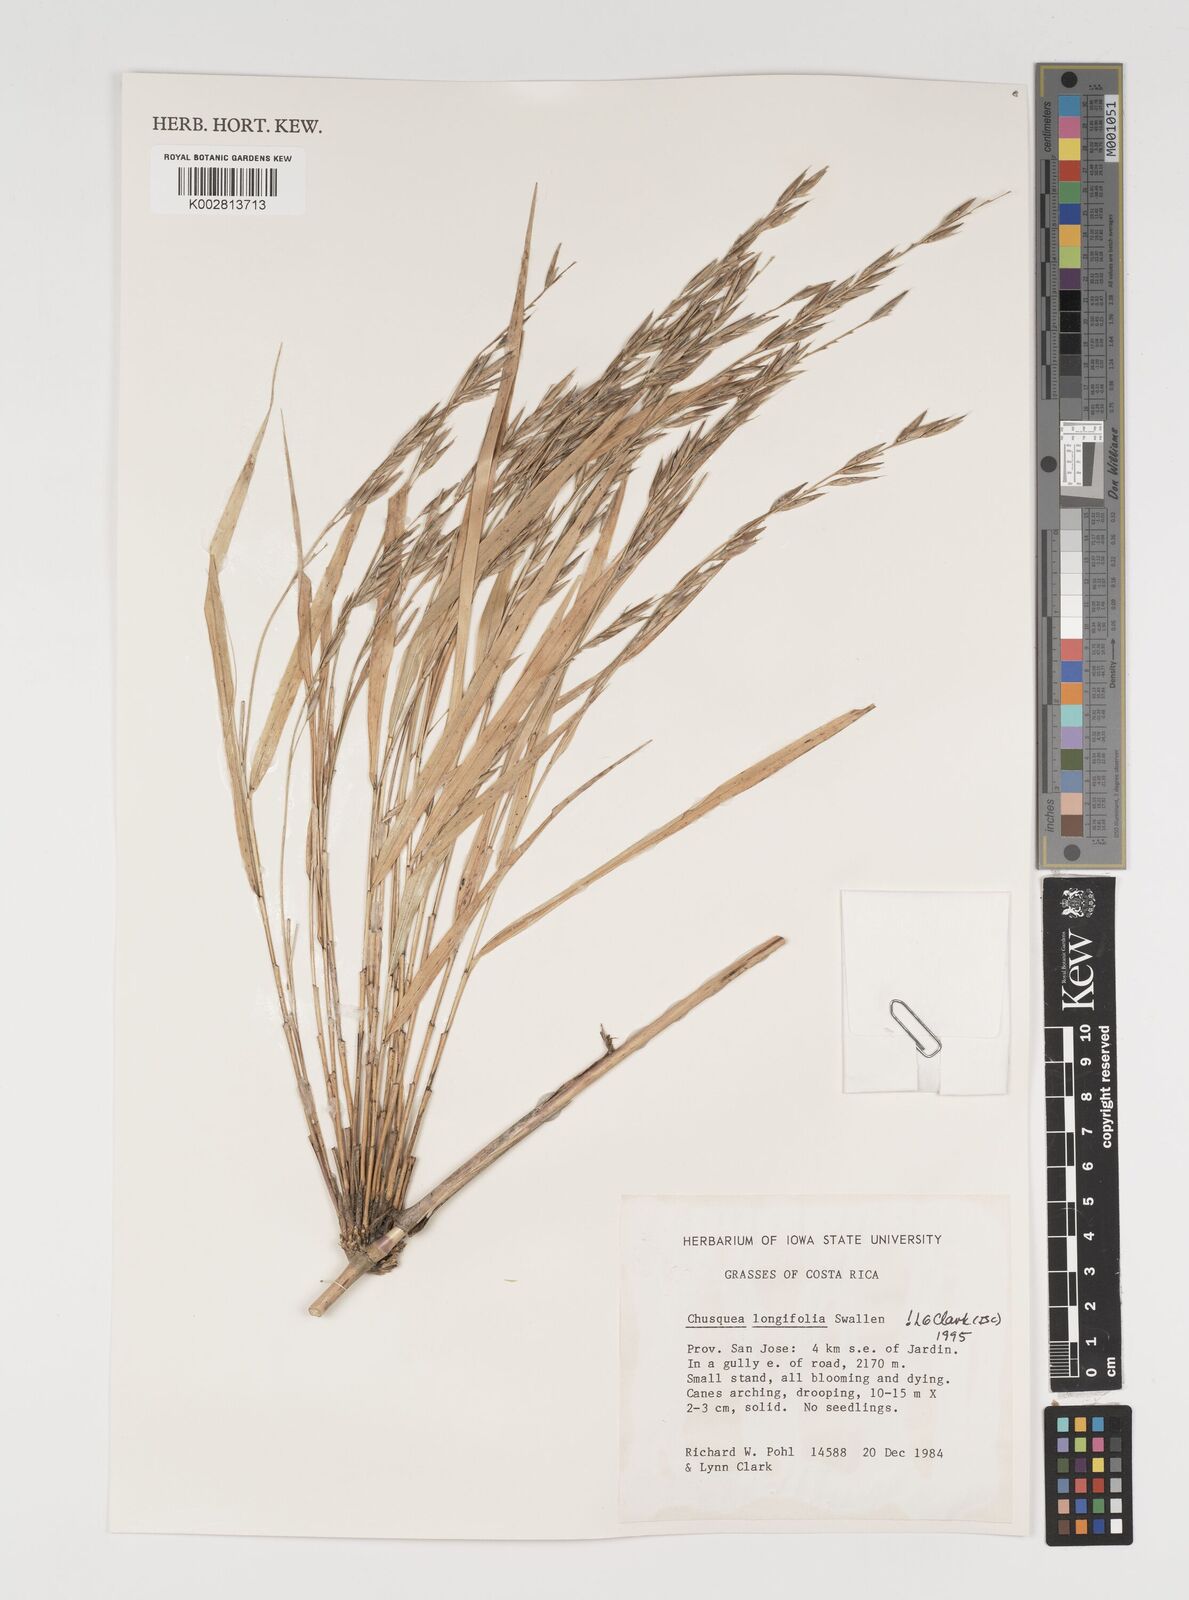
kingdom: Plantae
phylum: Tracheophyta
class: Liliopsida
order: Poales
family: Poaceae
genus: Chusquea
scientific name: Chusquea longifolia
